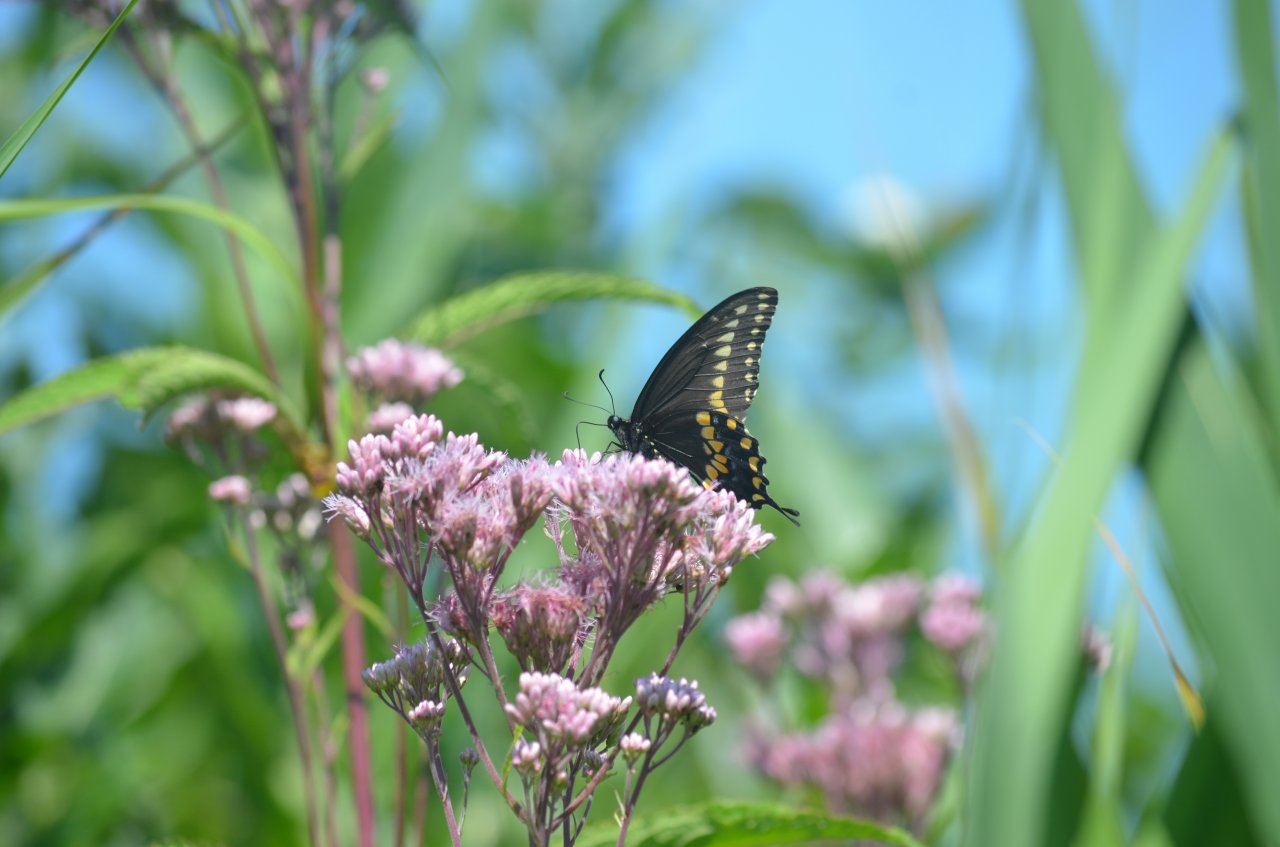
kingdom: Animalia
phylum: Arthropoda
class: Insecta
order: Lepidoptera
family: Papilionidae
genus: Papilio
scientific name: Papilio polyxenes
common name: Black Swallowtail
